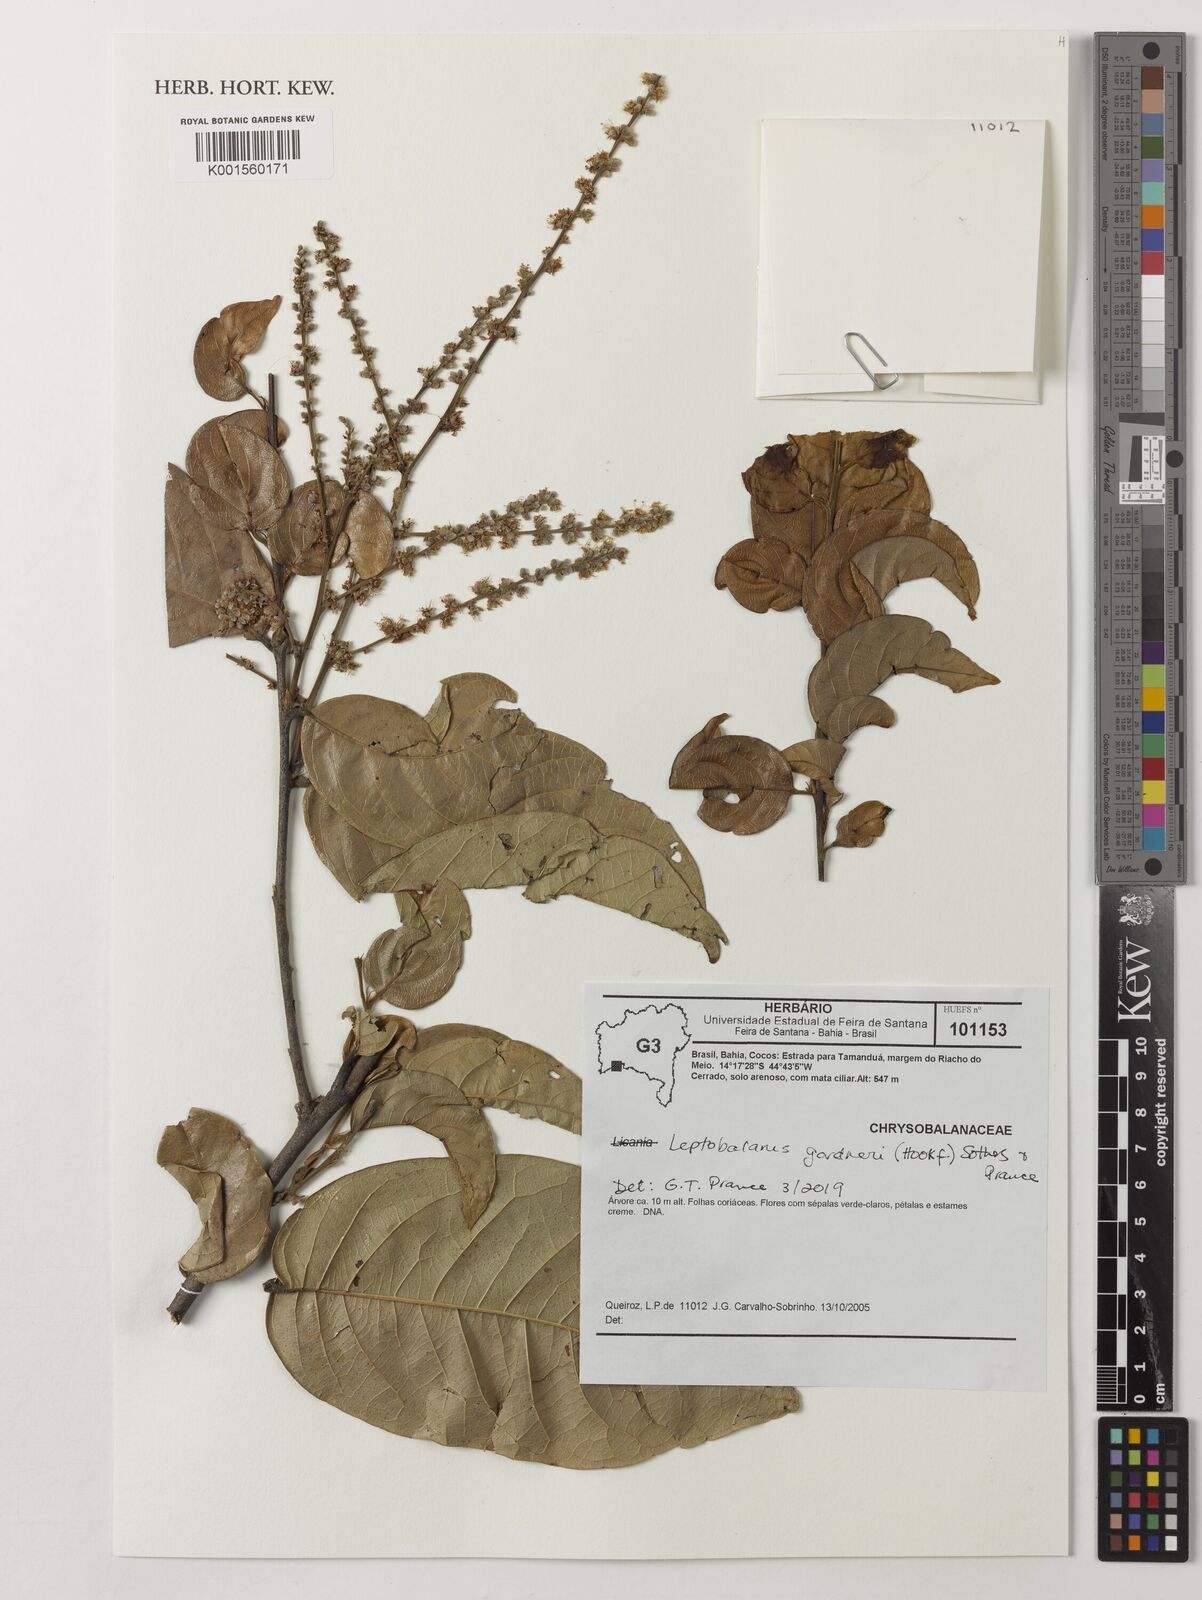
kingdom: Plantae
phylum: Tracheophyta
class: Magnoliopsida
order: Malpighiales
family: Chrysobalanaceae
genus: Leptobalanus
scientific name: Leptobalanus gardneri
